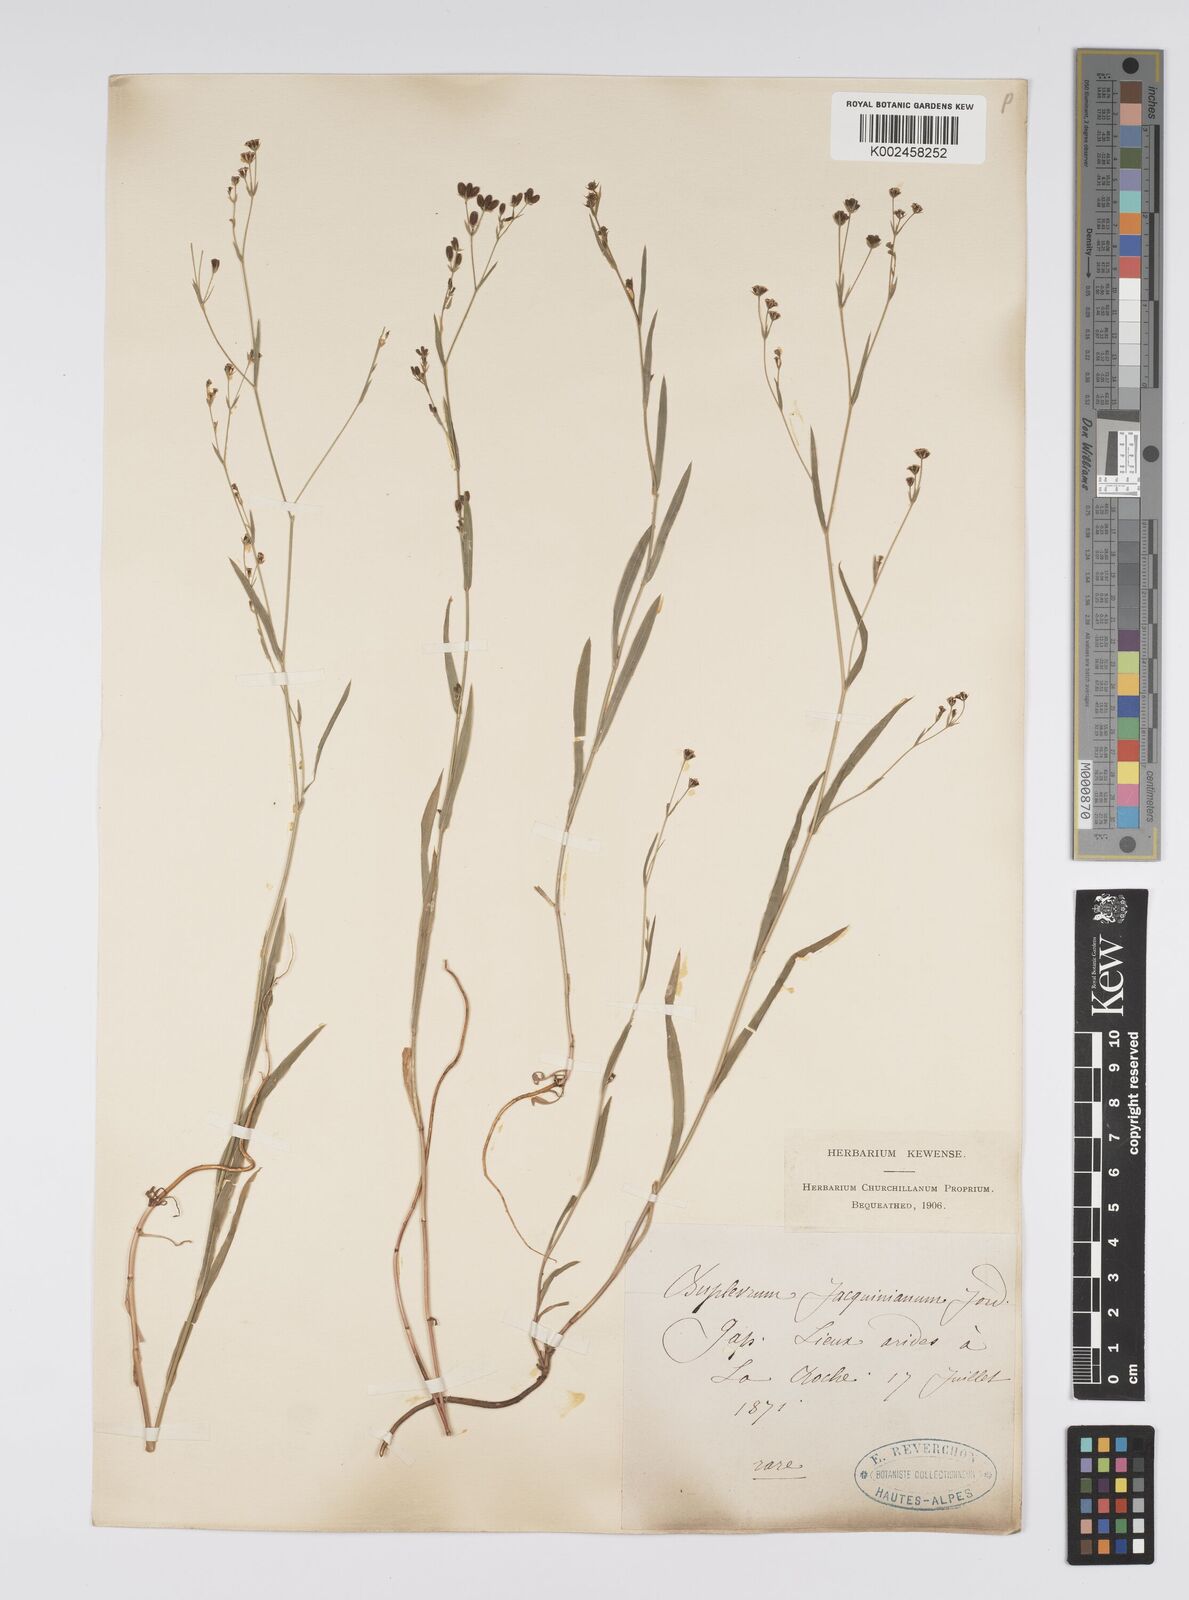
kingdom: Plantae
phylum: Tracheophyta
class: Magnoliopsida
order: Apiales
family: Apiaceae
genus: Bupleurum
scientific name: Bupleurum praealtum
